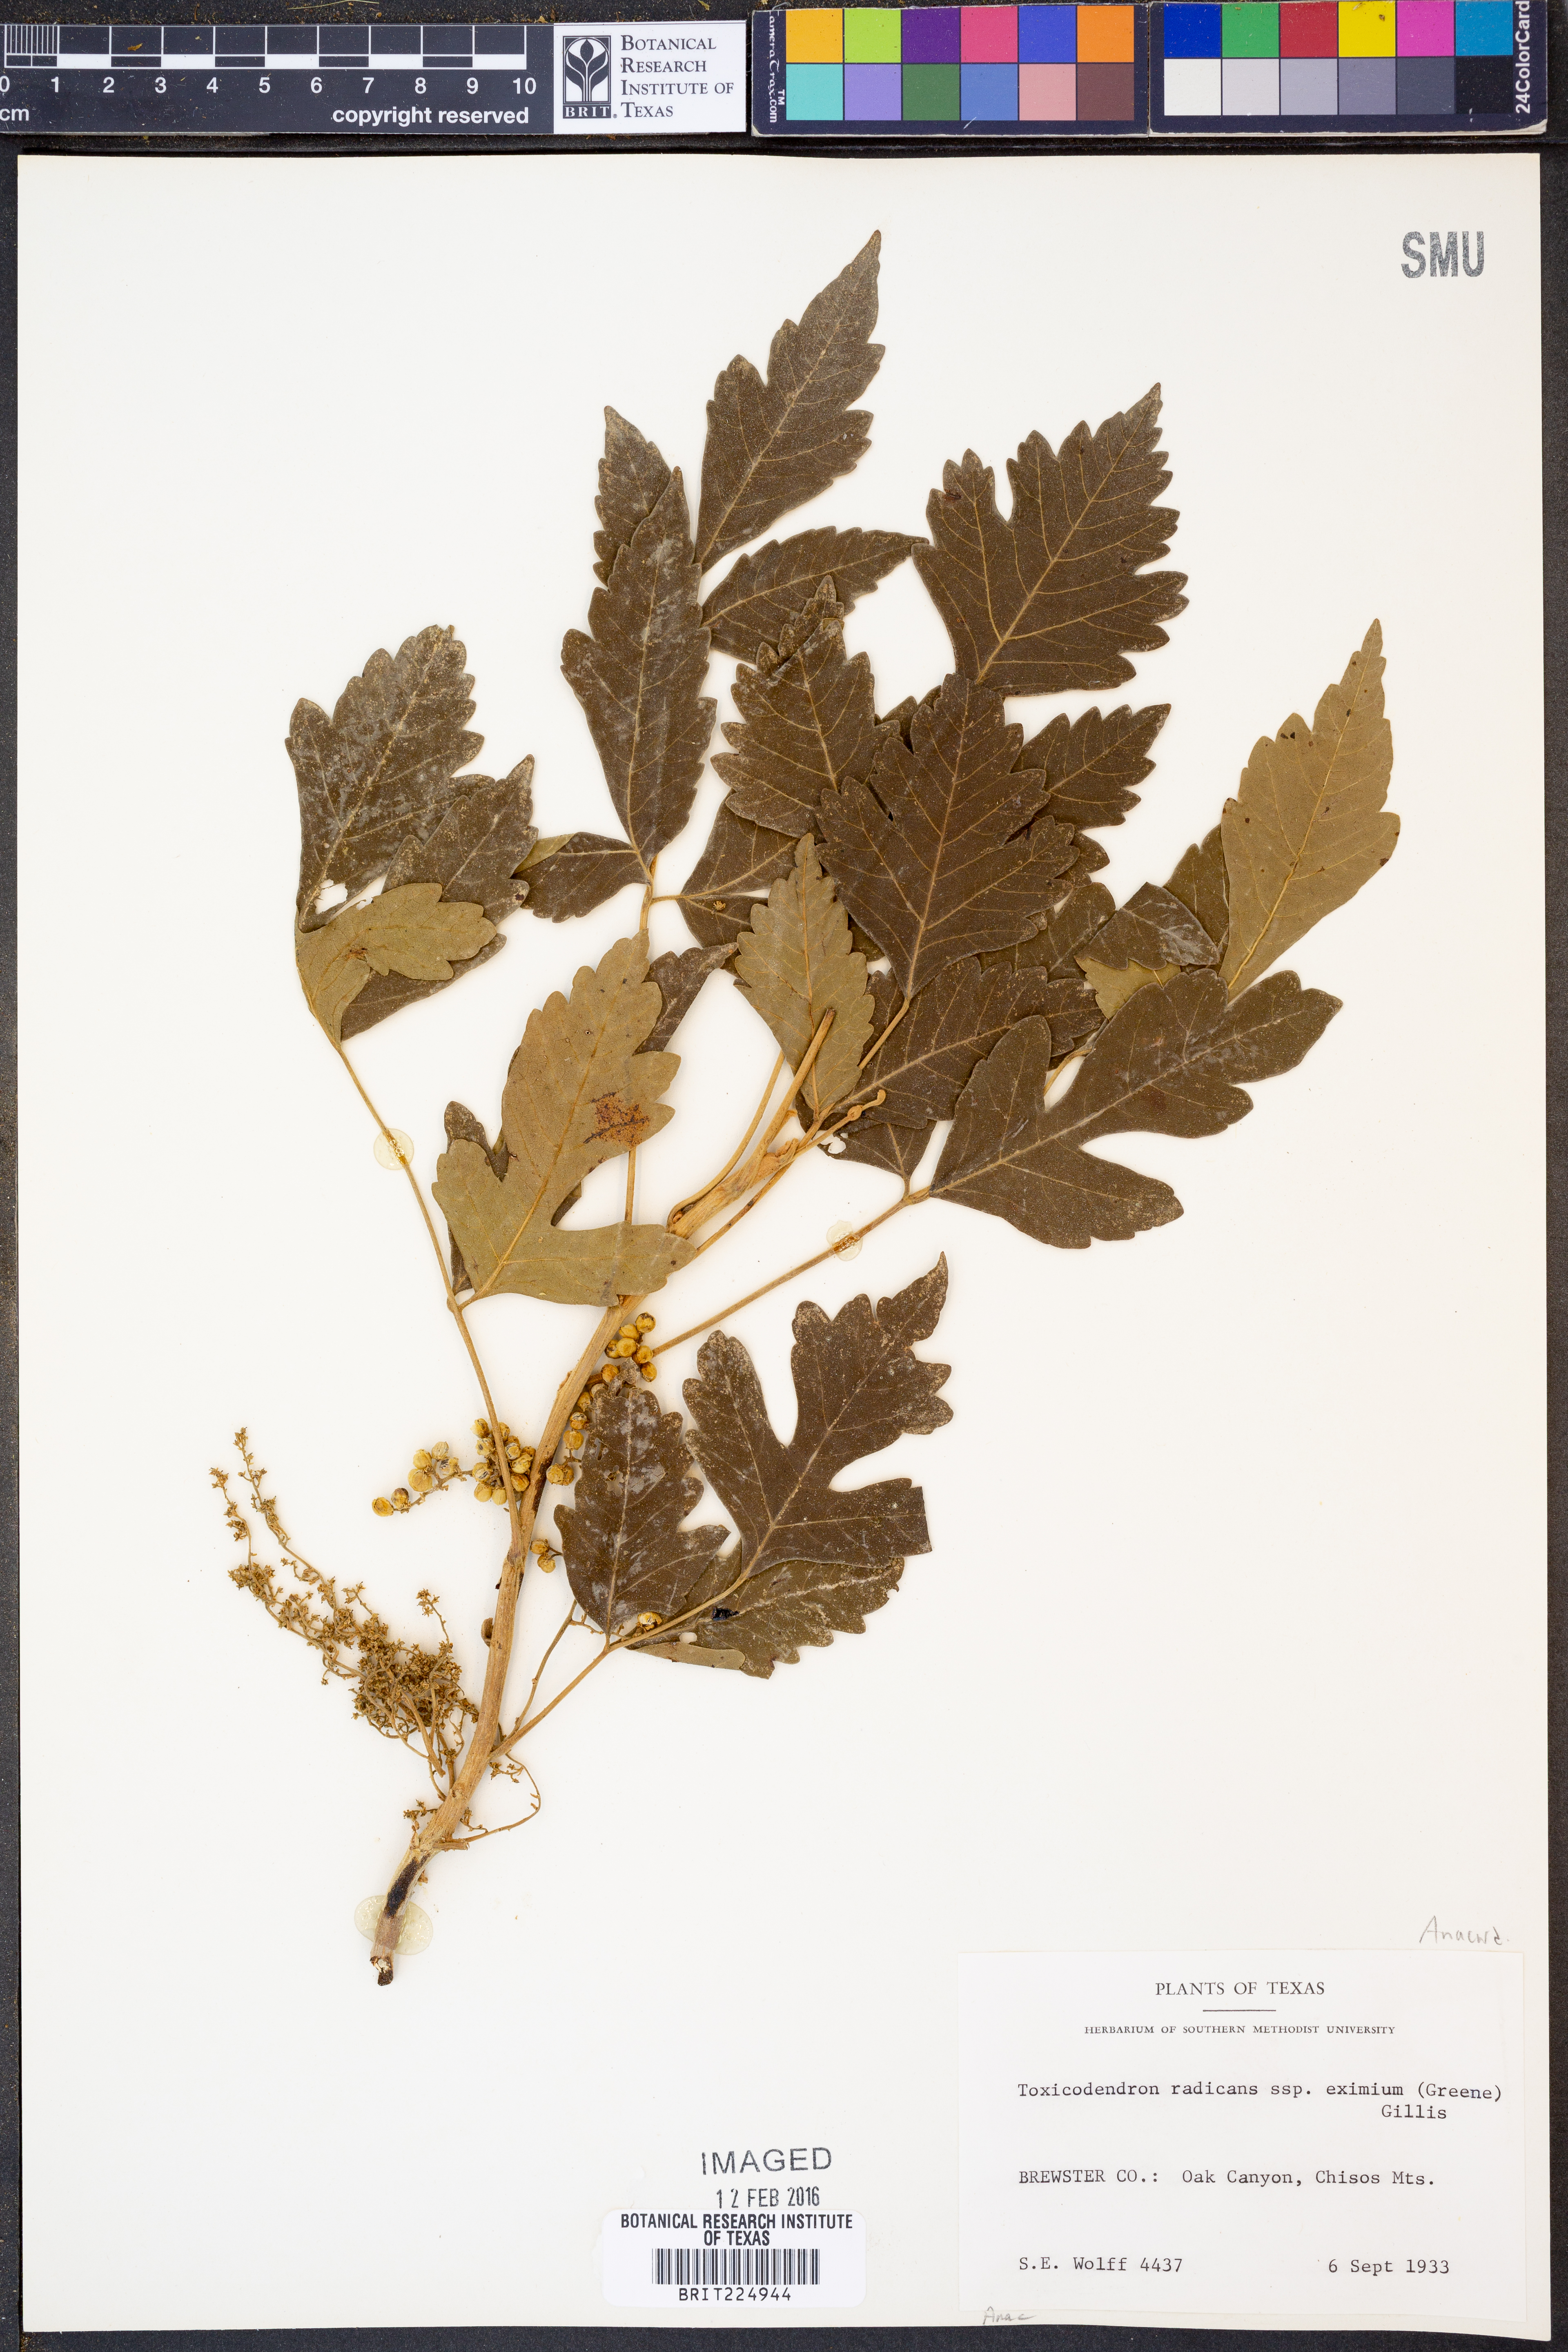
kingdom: Plantae
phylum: Tracheophyta
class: Magnoliopsida
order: Sapindales
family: Anacardiaceae
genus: Toxicodendron
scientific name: Toxicodendron radicans
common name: Poison ivy
